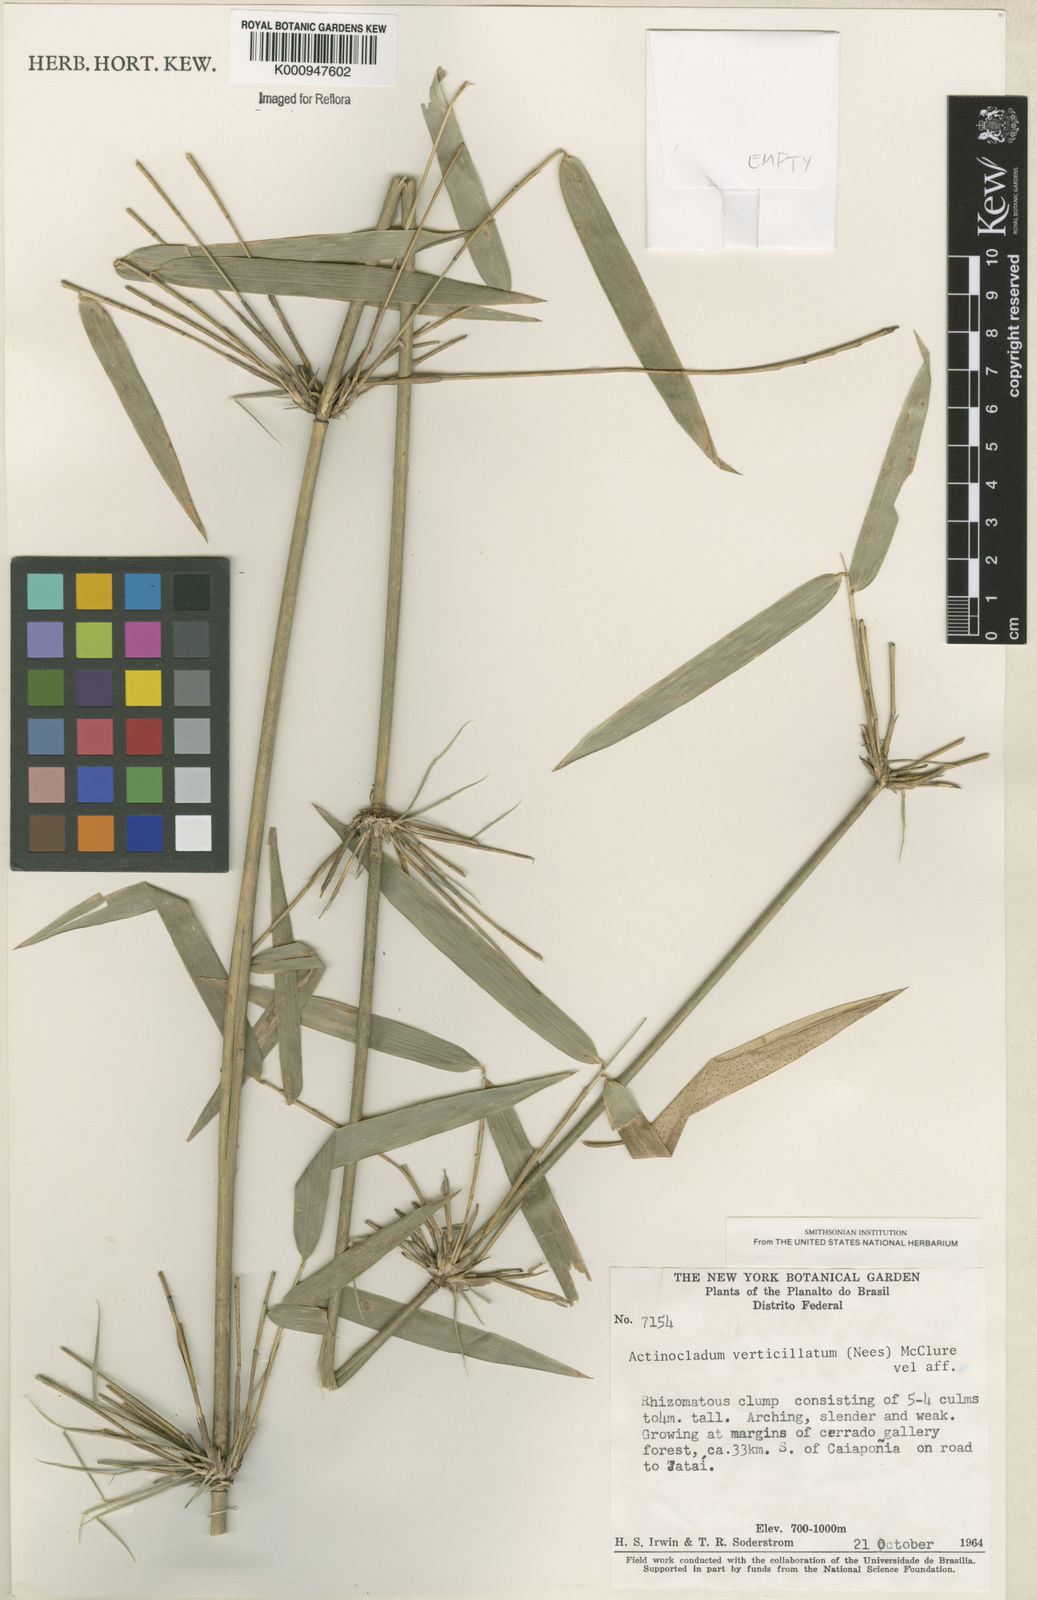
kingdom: Plantae
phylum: Tracheophyta
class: Liliopsida
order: Poales
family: Poaceae
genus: Actinocladum
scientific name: Actinocladum verticillatum
